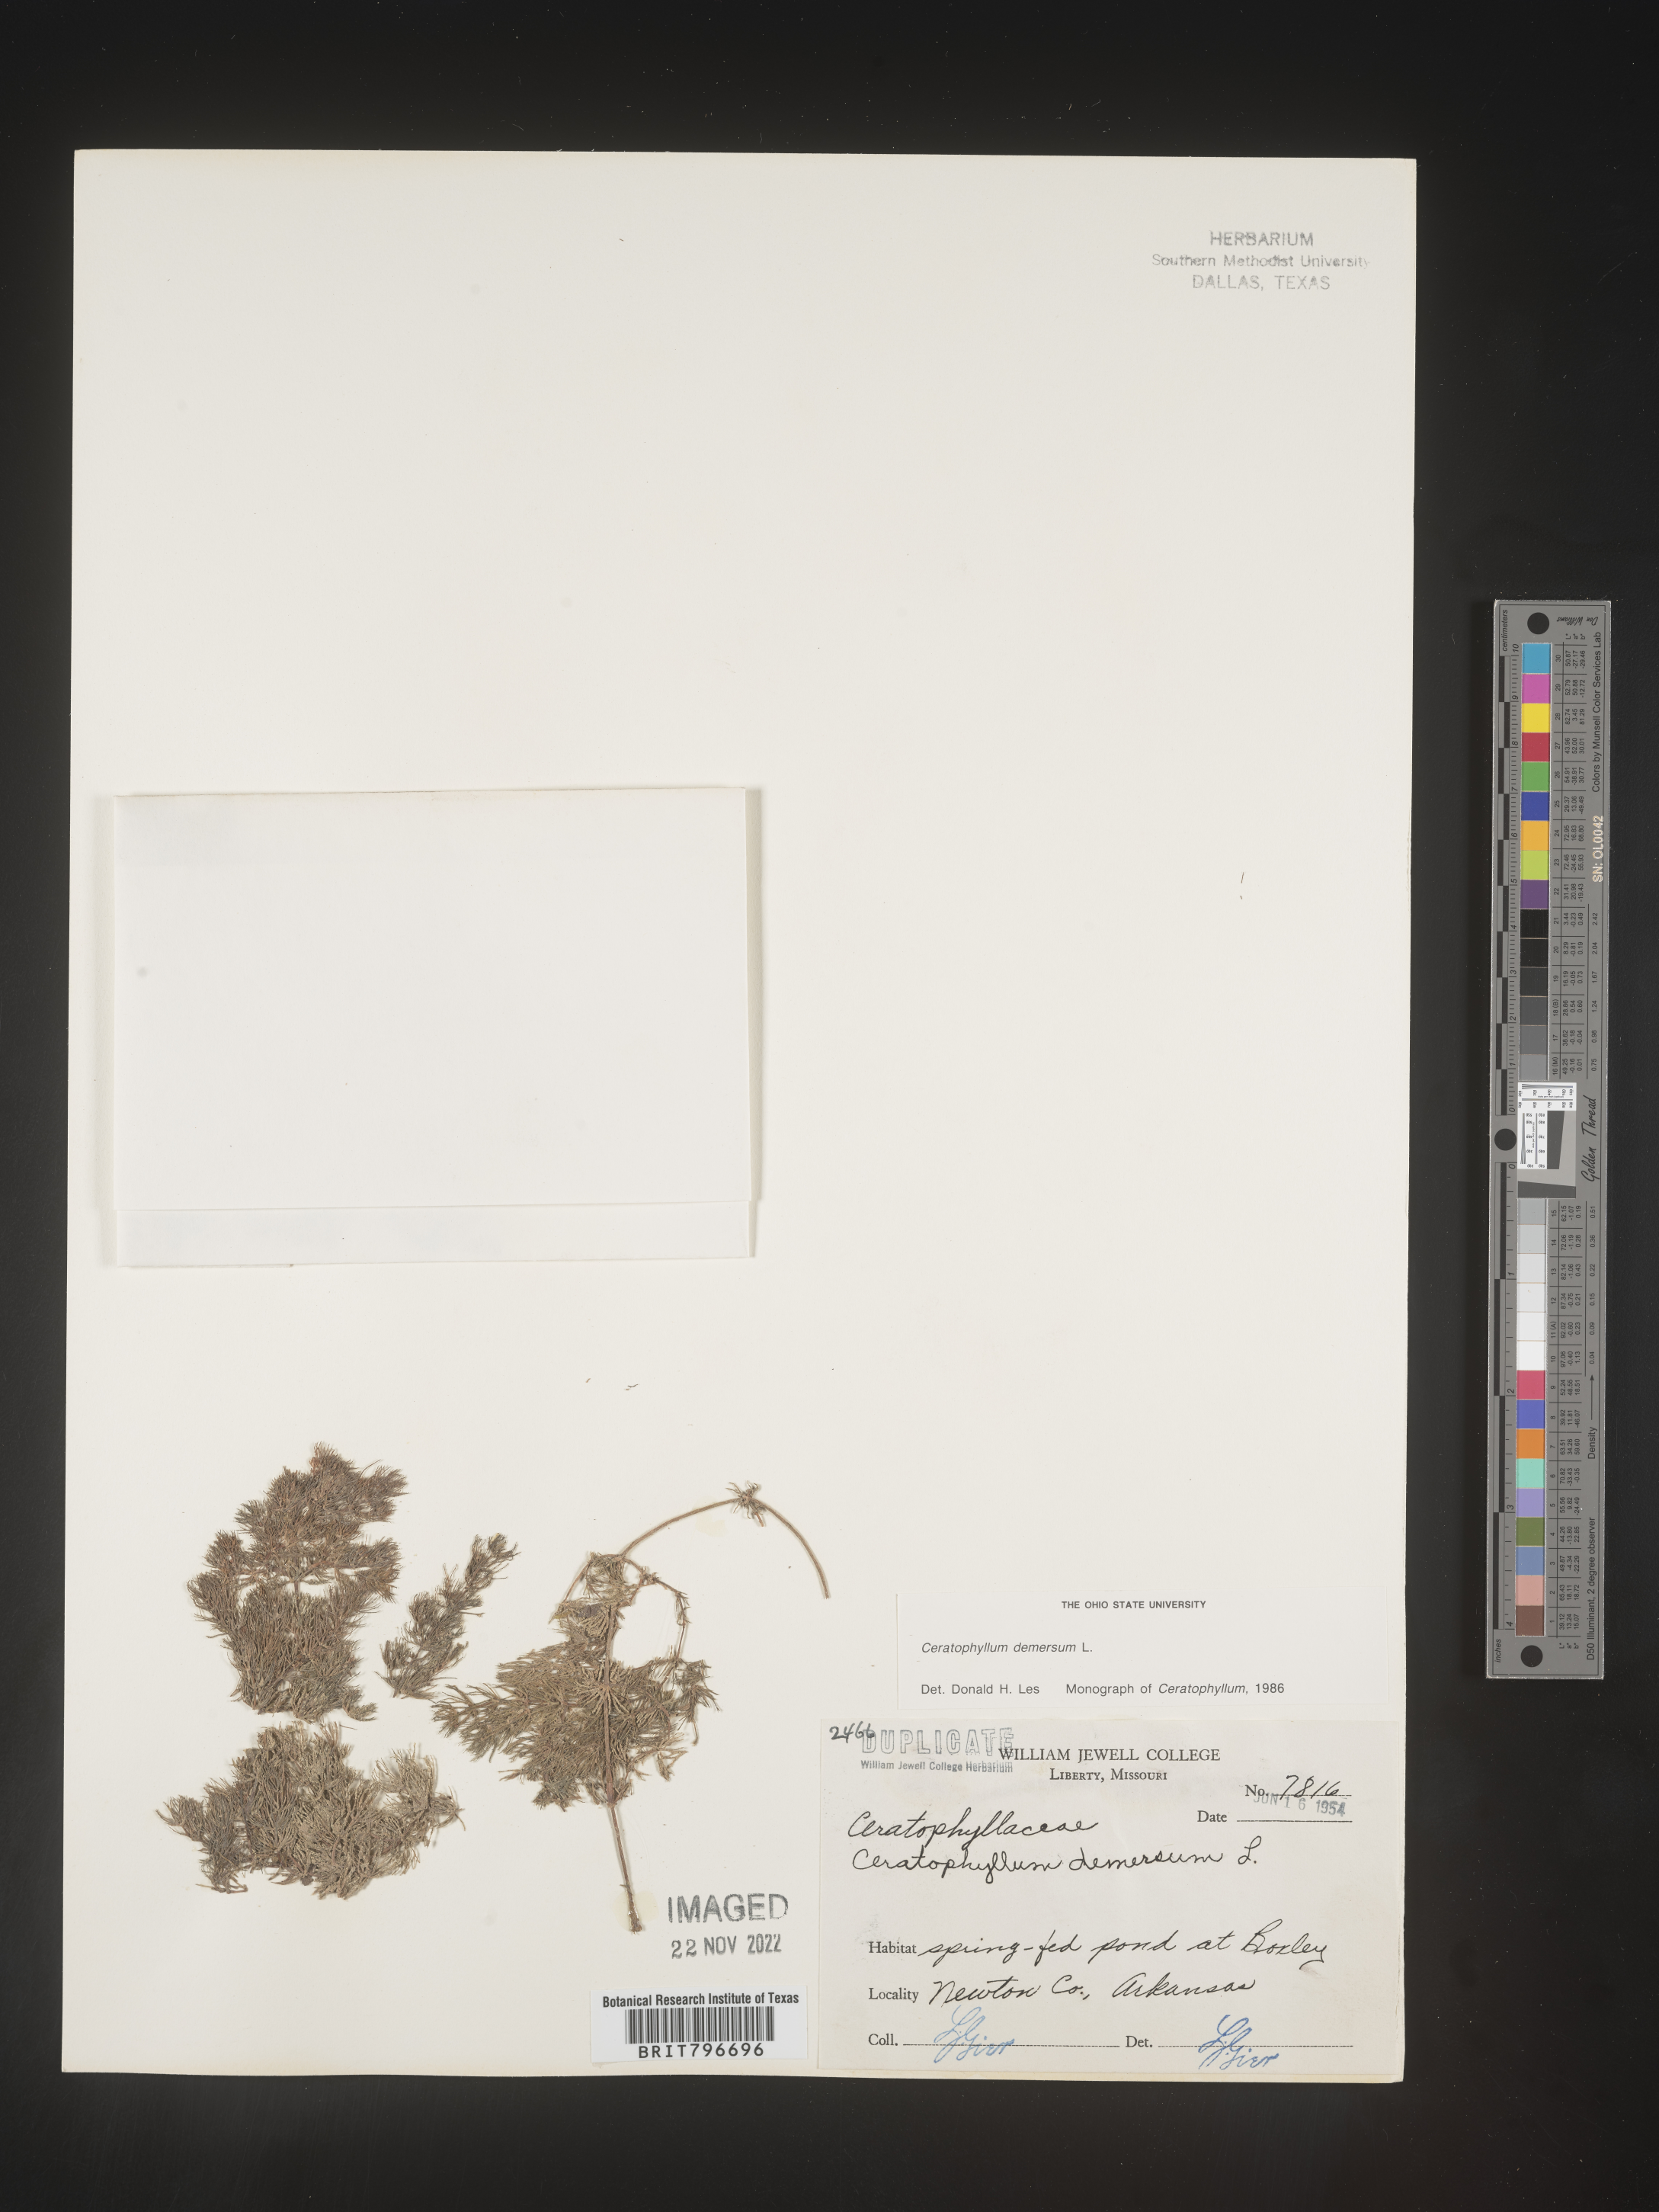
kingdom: Plantae
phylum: Tracheophyta
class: Magnoliopsida
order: Ceratophyllales
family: Ceratophyllaceae
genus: Ceratophyllum
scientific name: Ceratophyllum demersum
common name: Rigid hornwort
